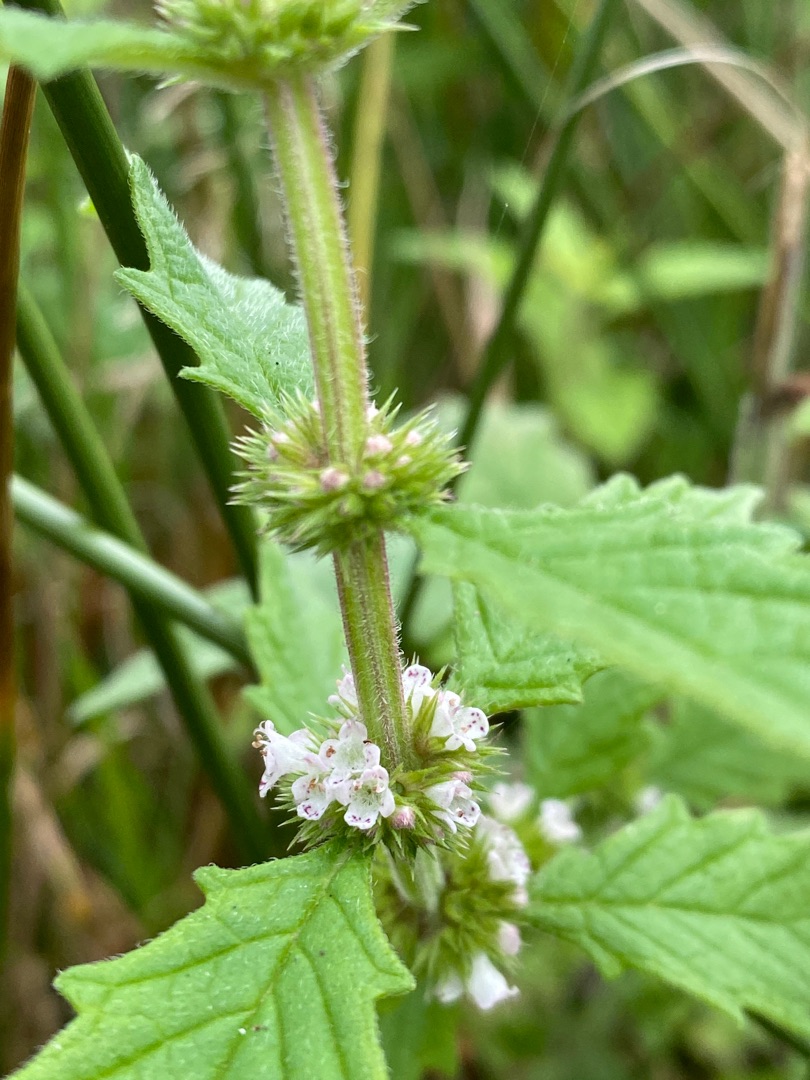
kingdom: Plantae
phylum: Tracheophyta
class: Magnoliopsida
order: Lamiales
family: Lamiaceae
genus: Lycopus
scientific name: Lycopus europaeus
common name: Sværtevæld
